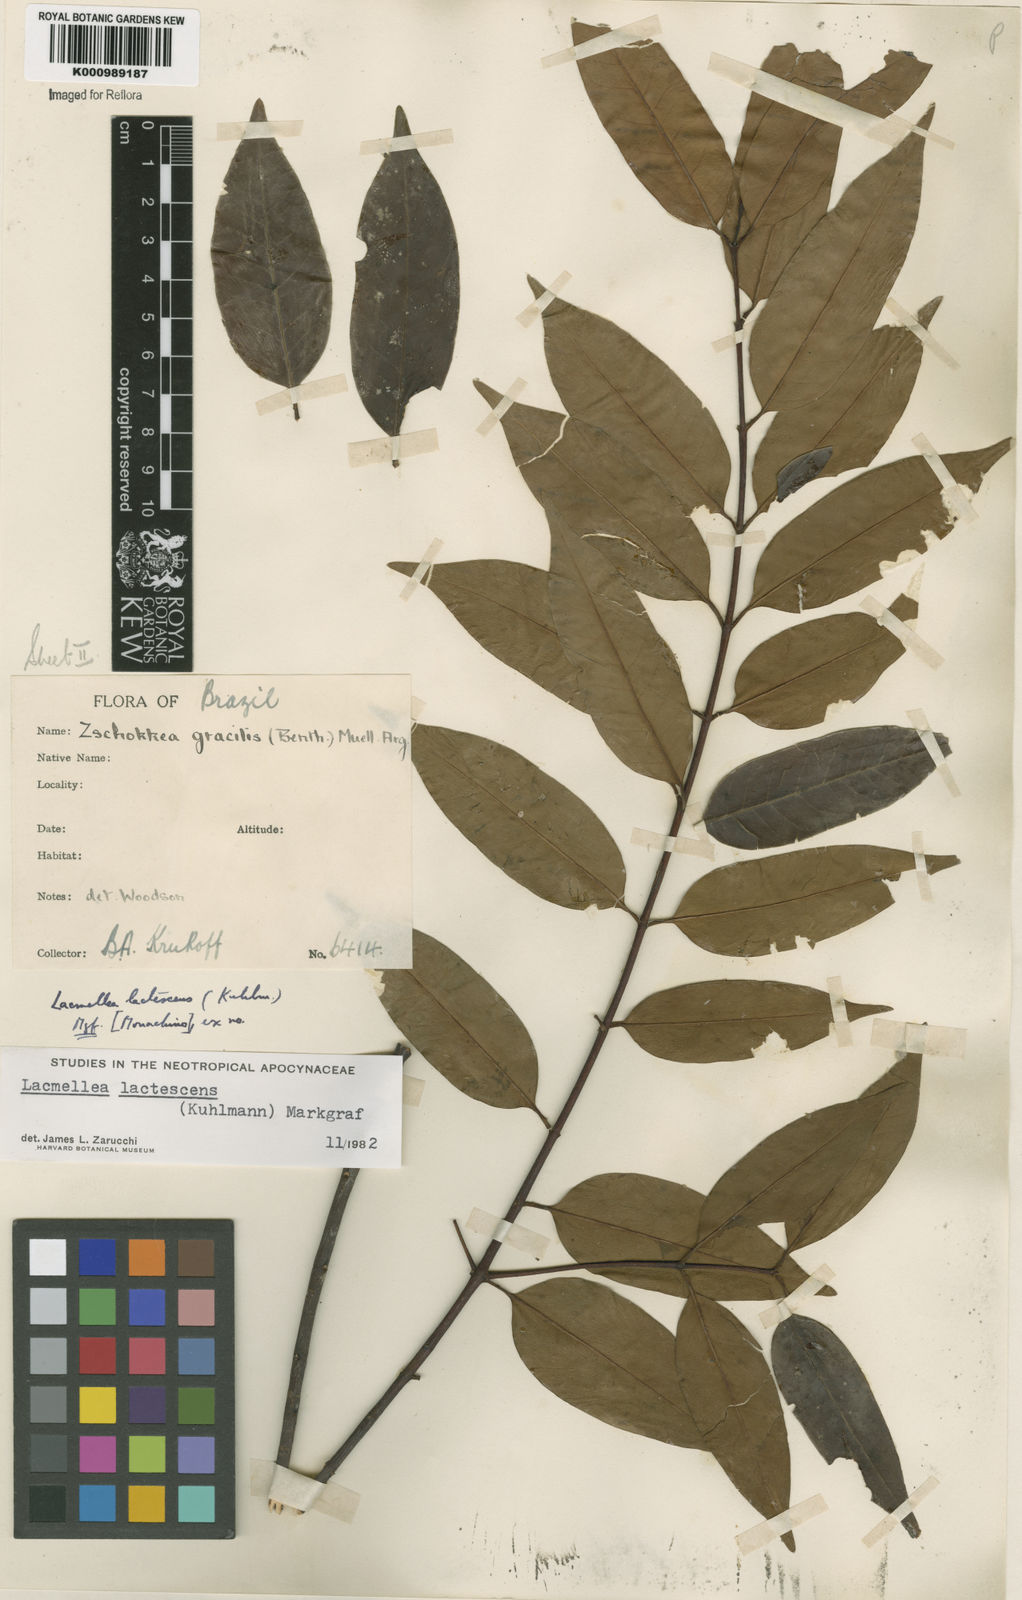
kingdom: Plantae
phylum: Tracheophyta
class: Magnoliopsida
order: Gentianales
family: Apocynaceae
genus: Lacmellea
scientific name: Lacmellea
